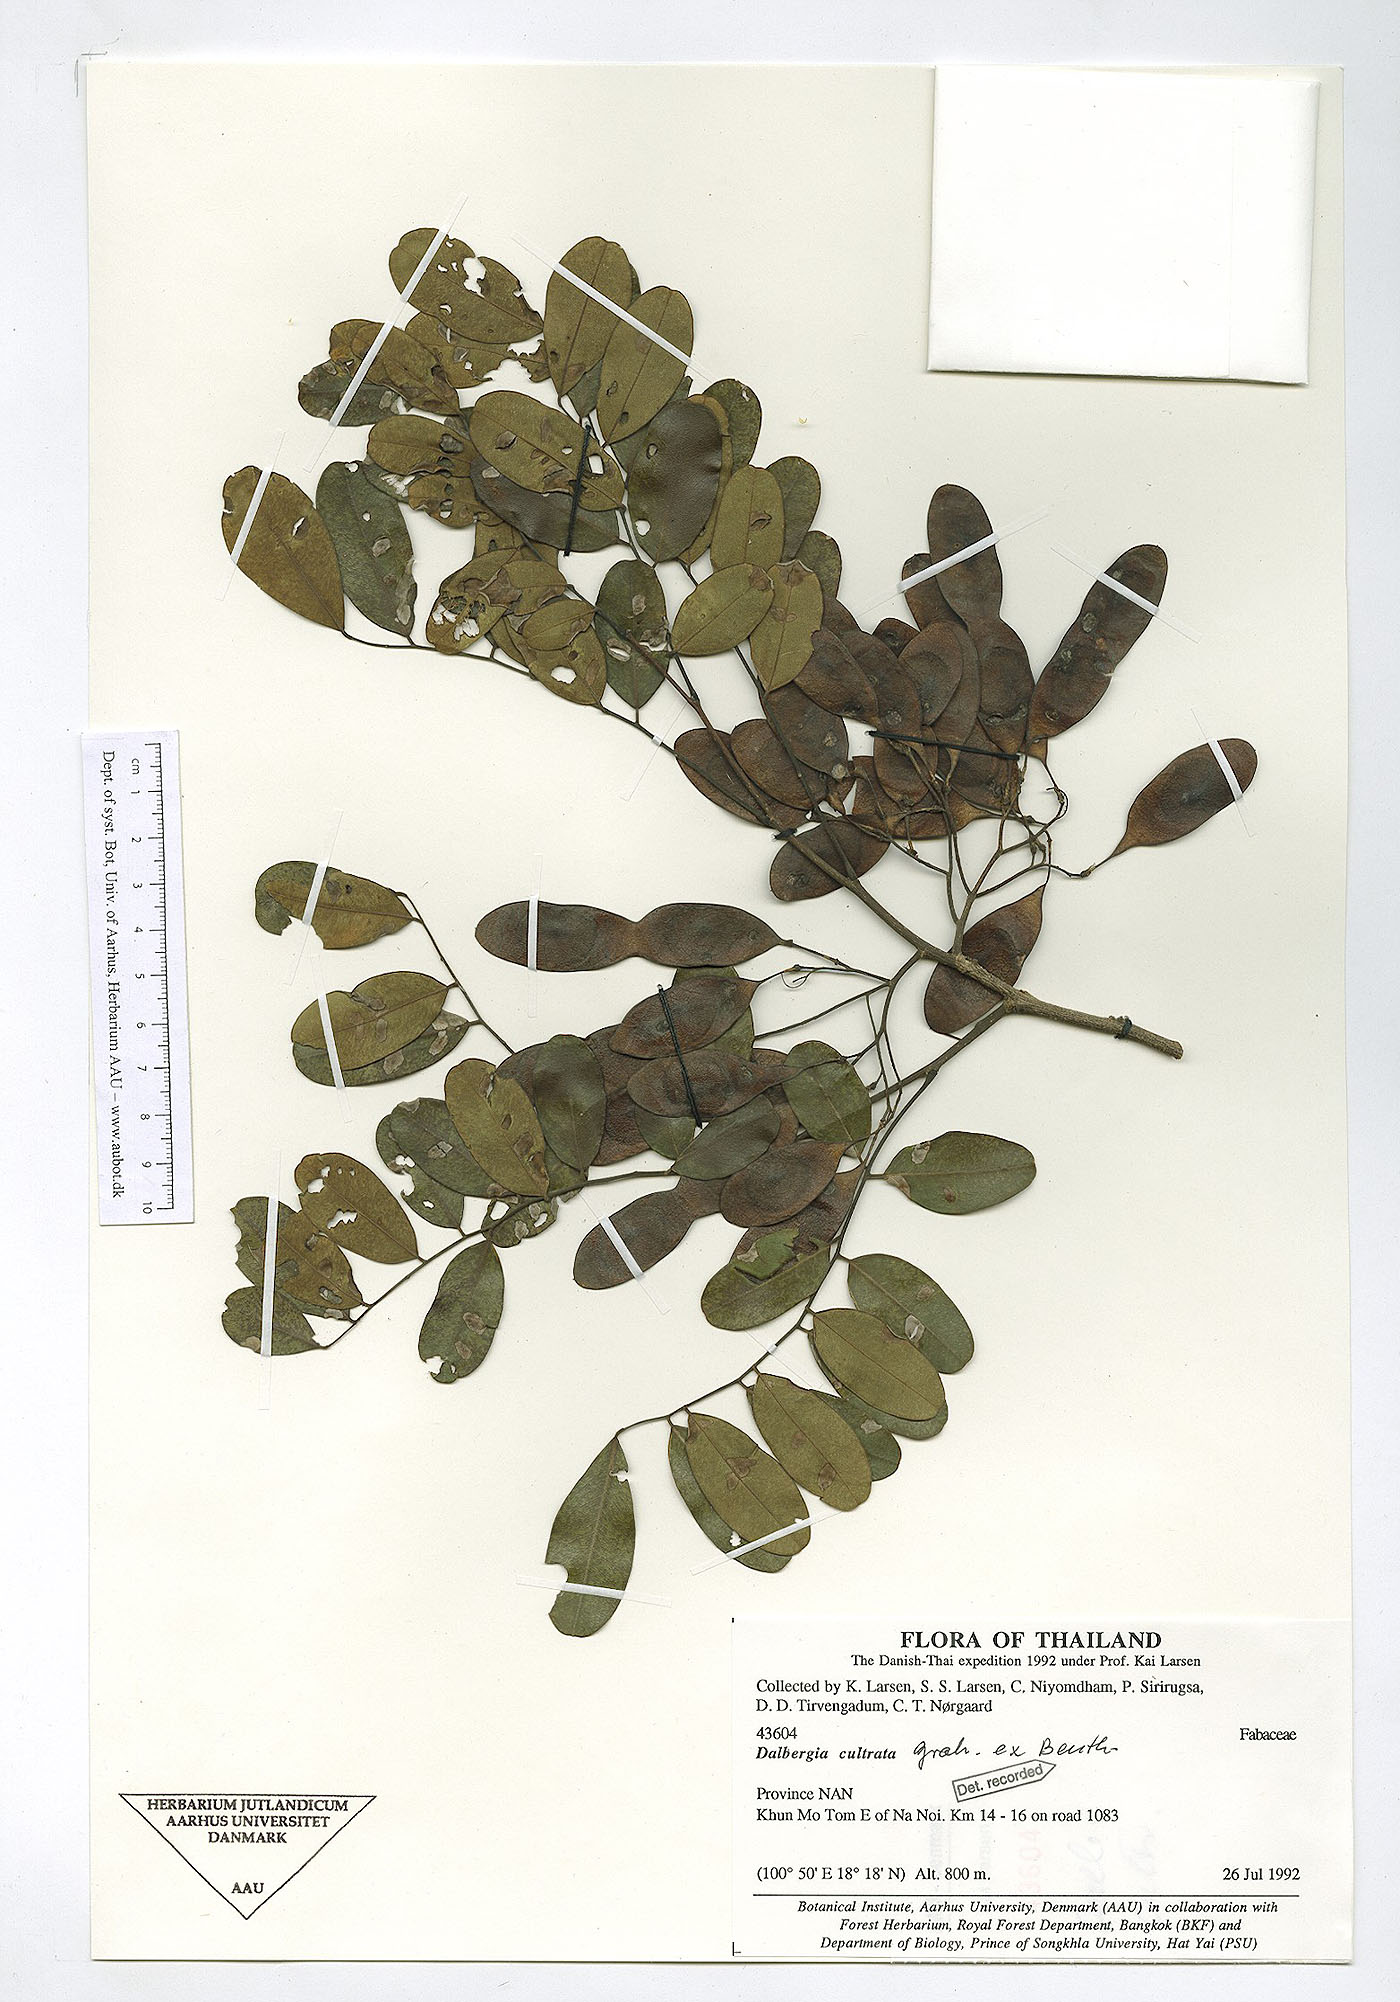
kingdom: Plantae
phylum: Tracheophyta
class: Magnoliopsida
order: Fabales
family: Fabaceae
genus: Dalbergia
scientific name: Dalbergia cultrata
